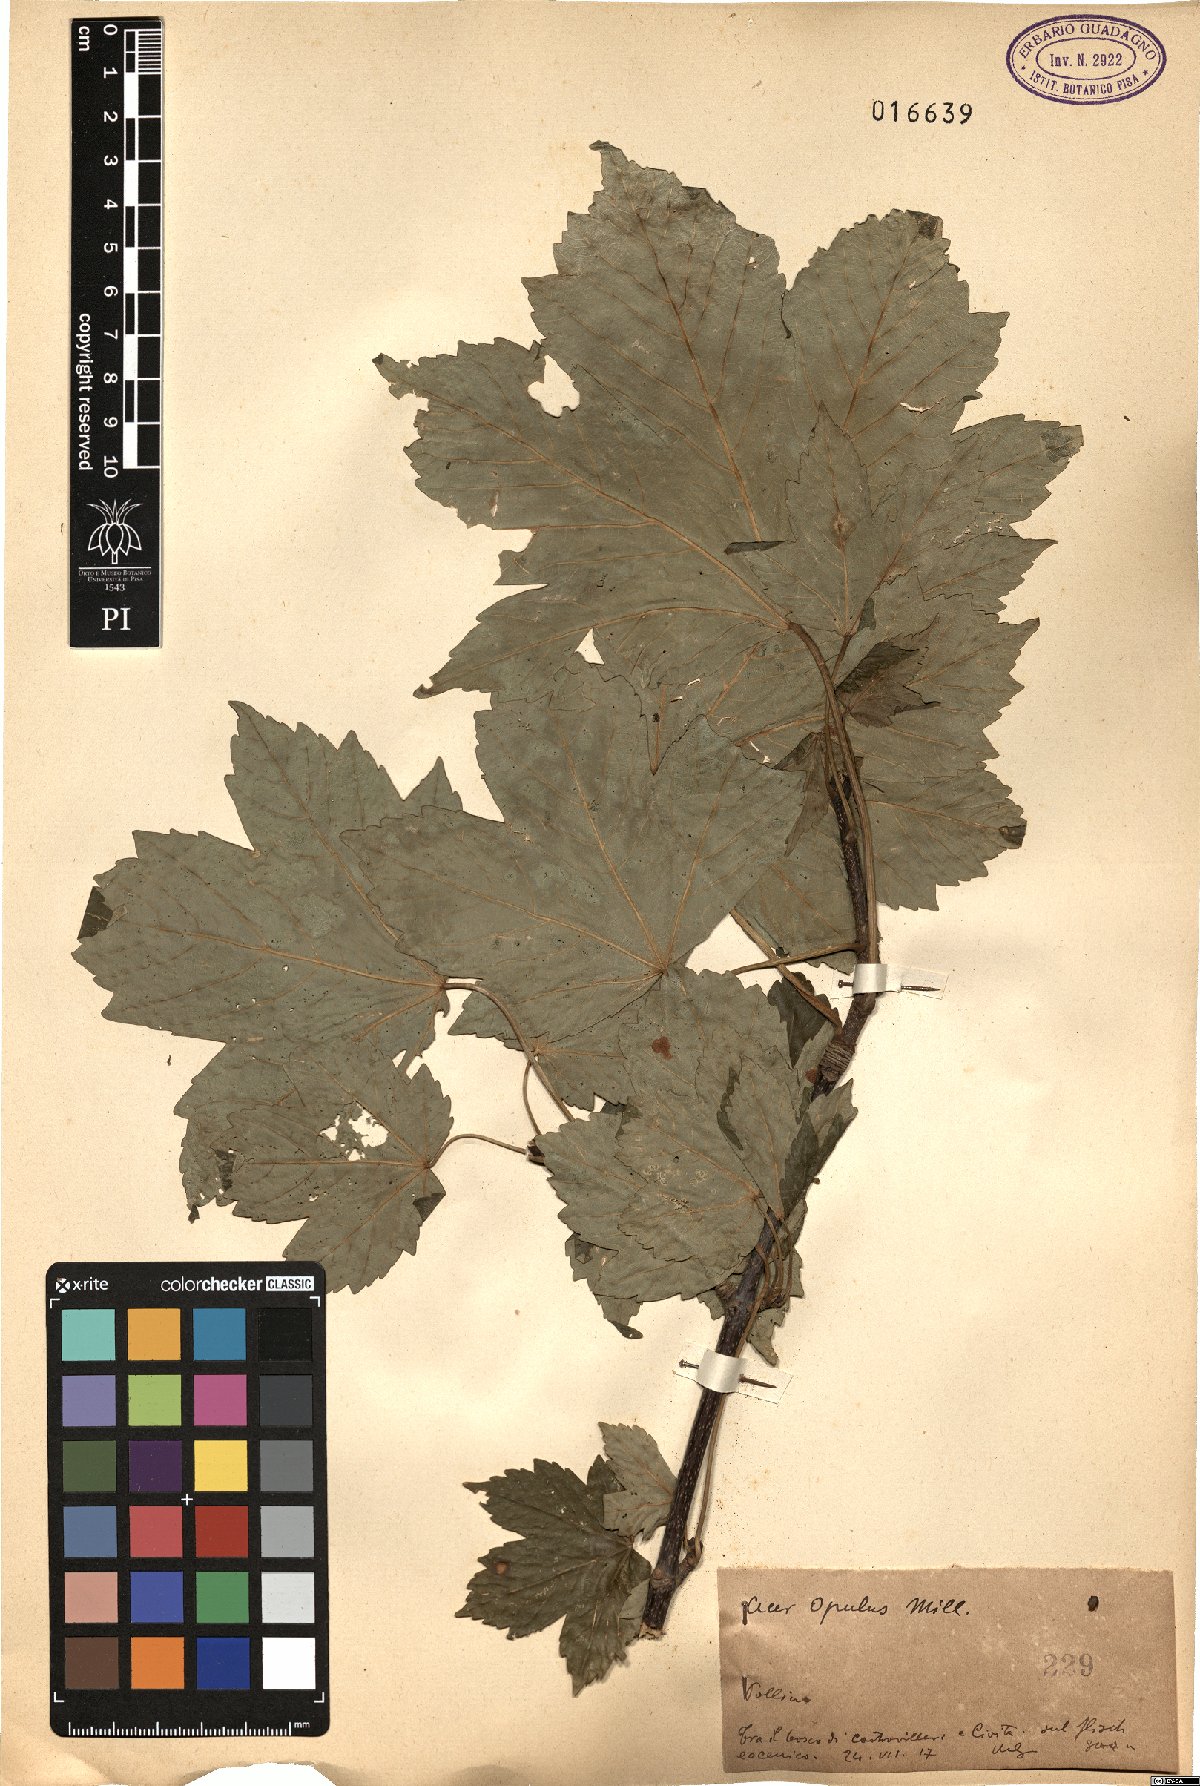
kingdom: Plantae
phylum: Tracheophyta
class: Magnoliopsida
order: Sapindales
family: Sapindaceae
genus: Acer
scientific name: Acer opalus
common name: Italian maple
